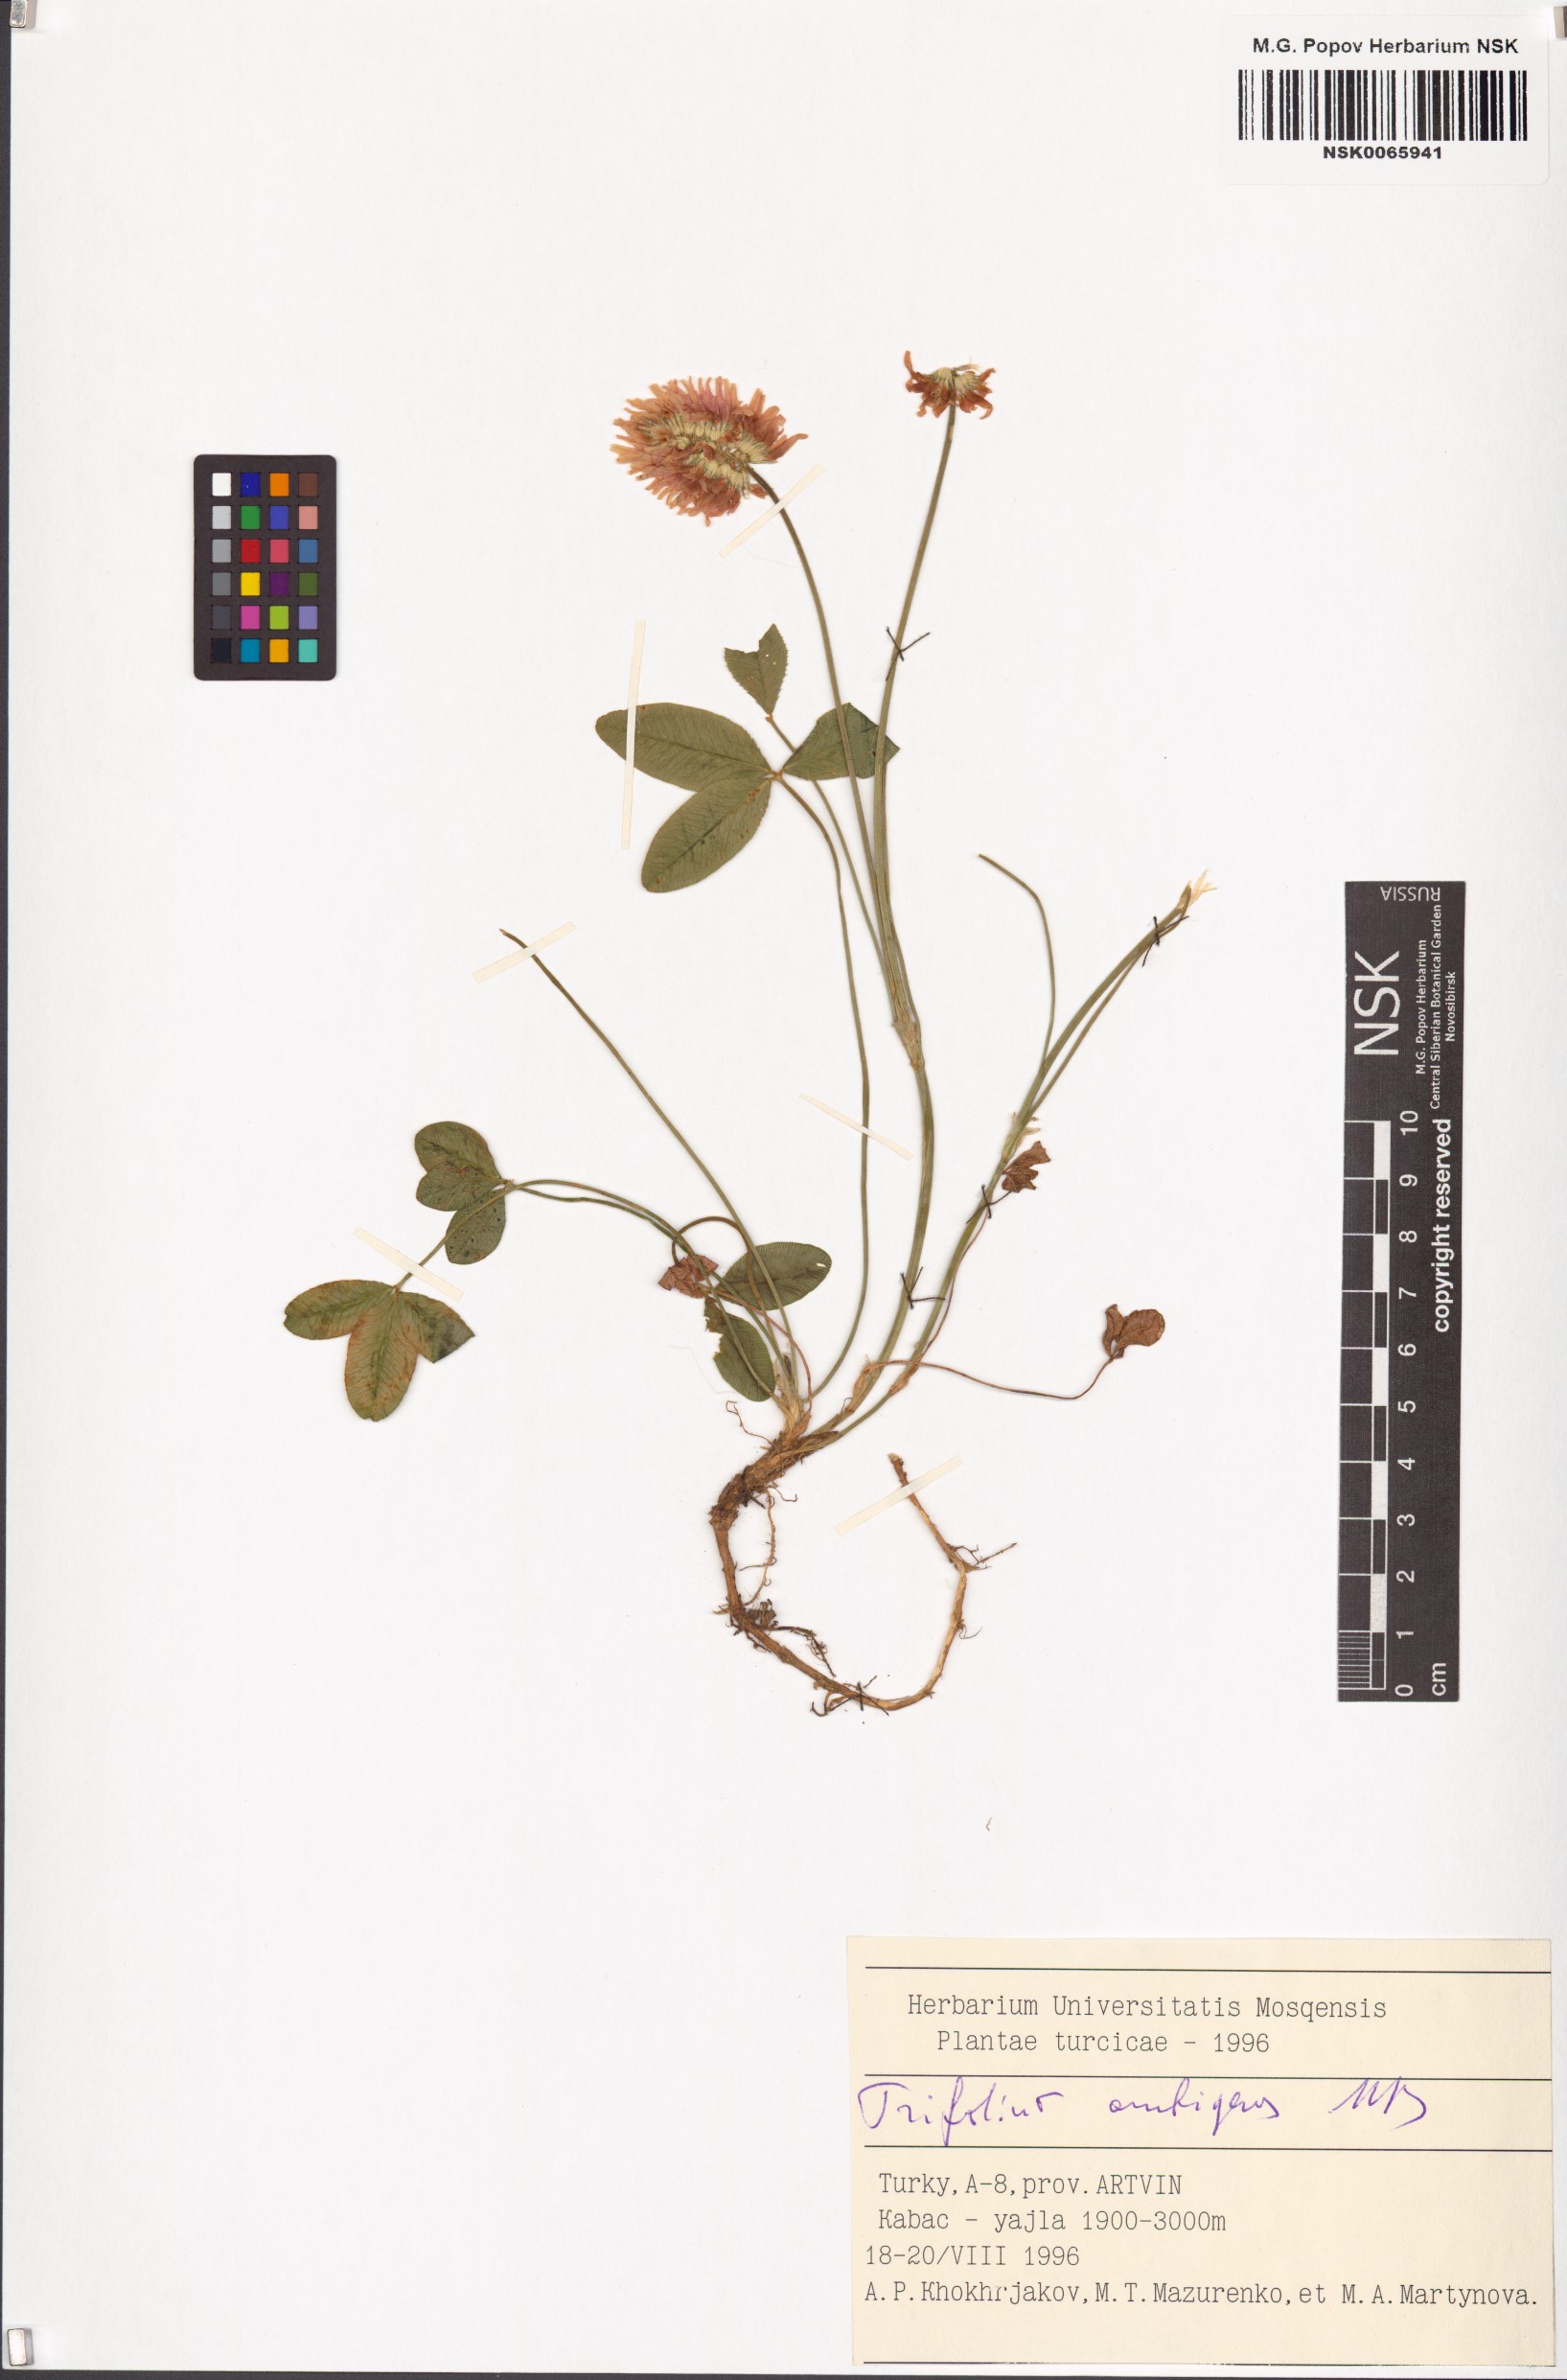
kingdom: Plantae
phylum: Tracheophyta
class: Magnoliopsida
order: Fabales
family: Fabaceae
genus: Trifolium
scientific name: Trifolium ambiguum
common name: Kura clover
